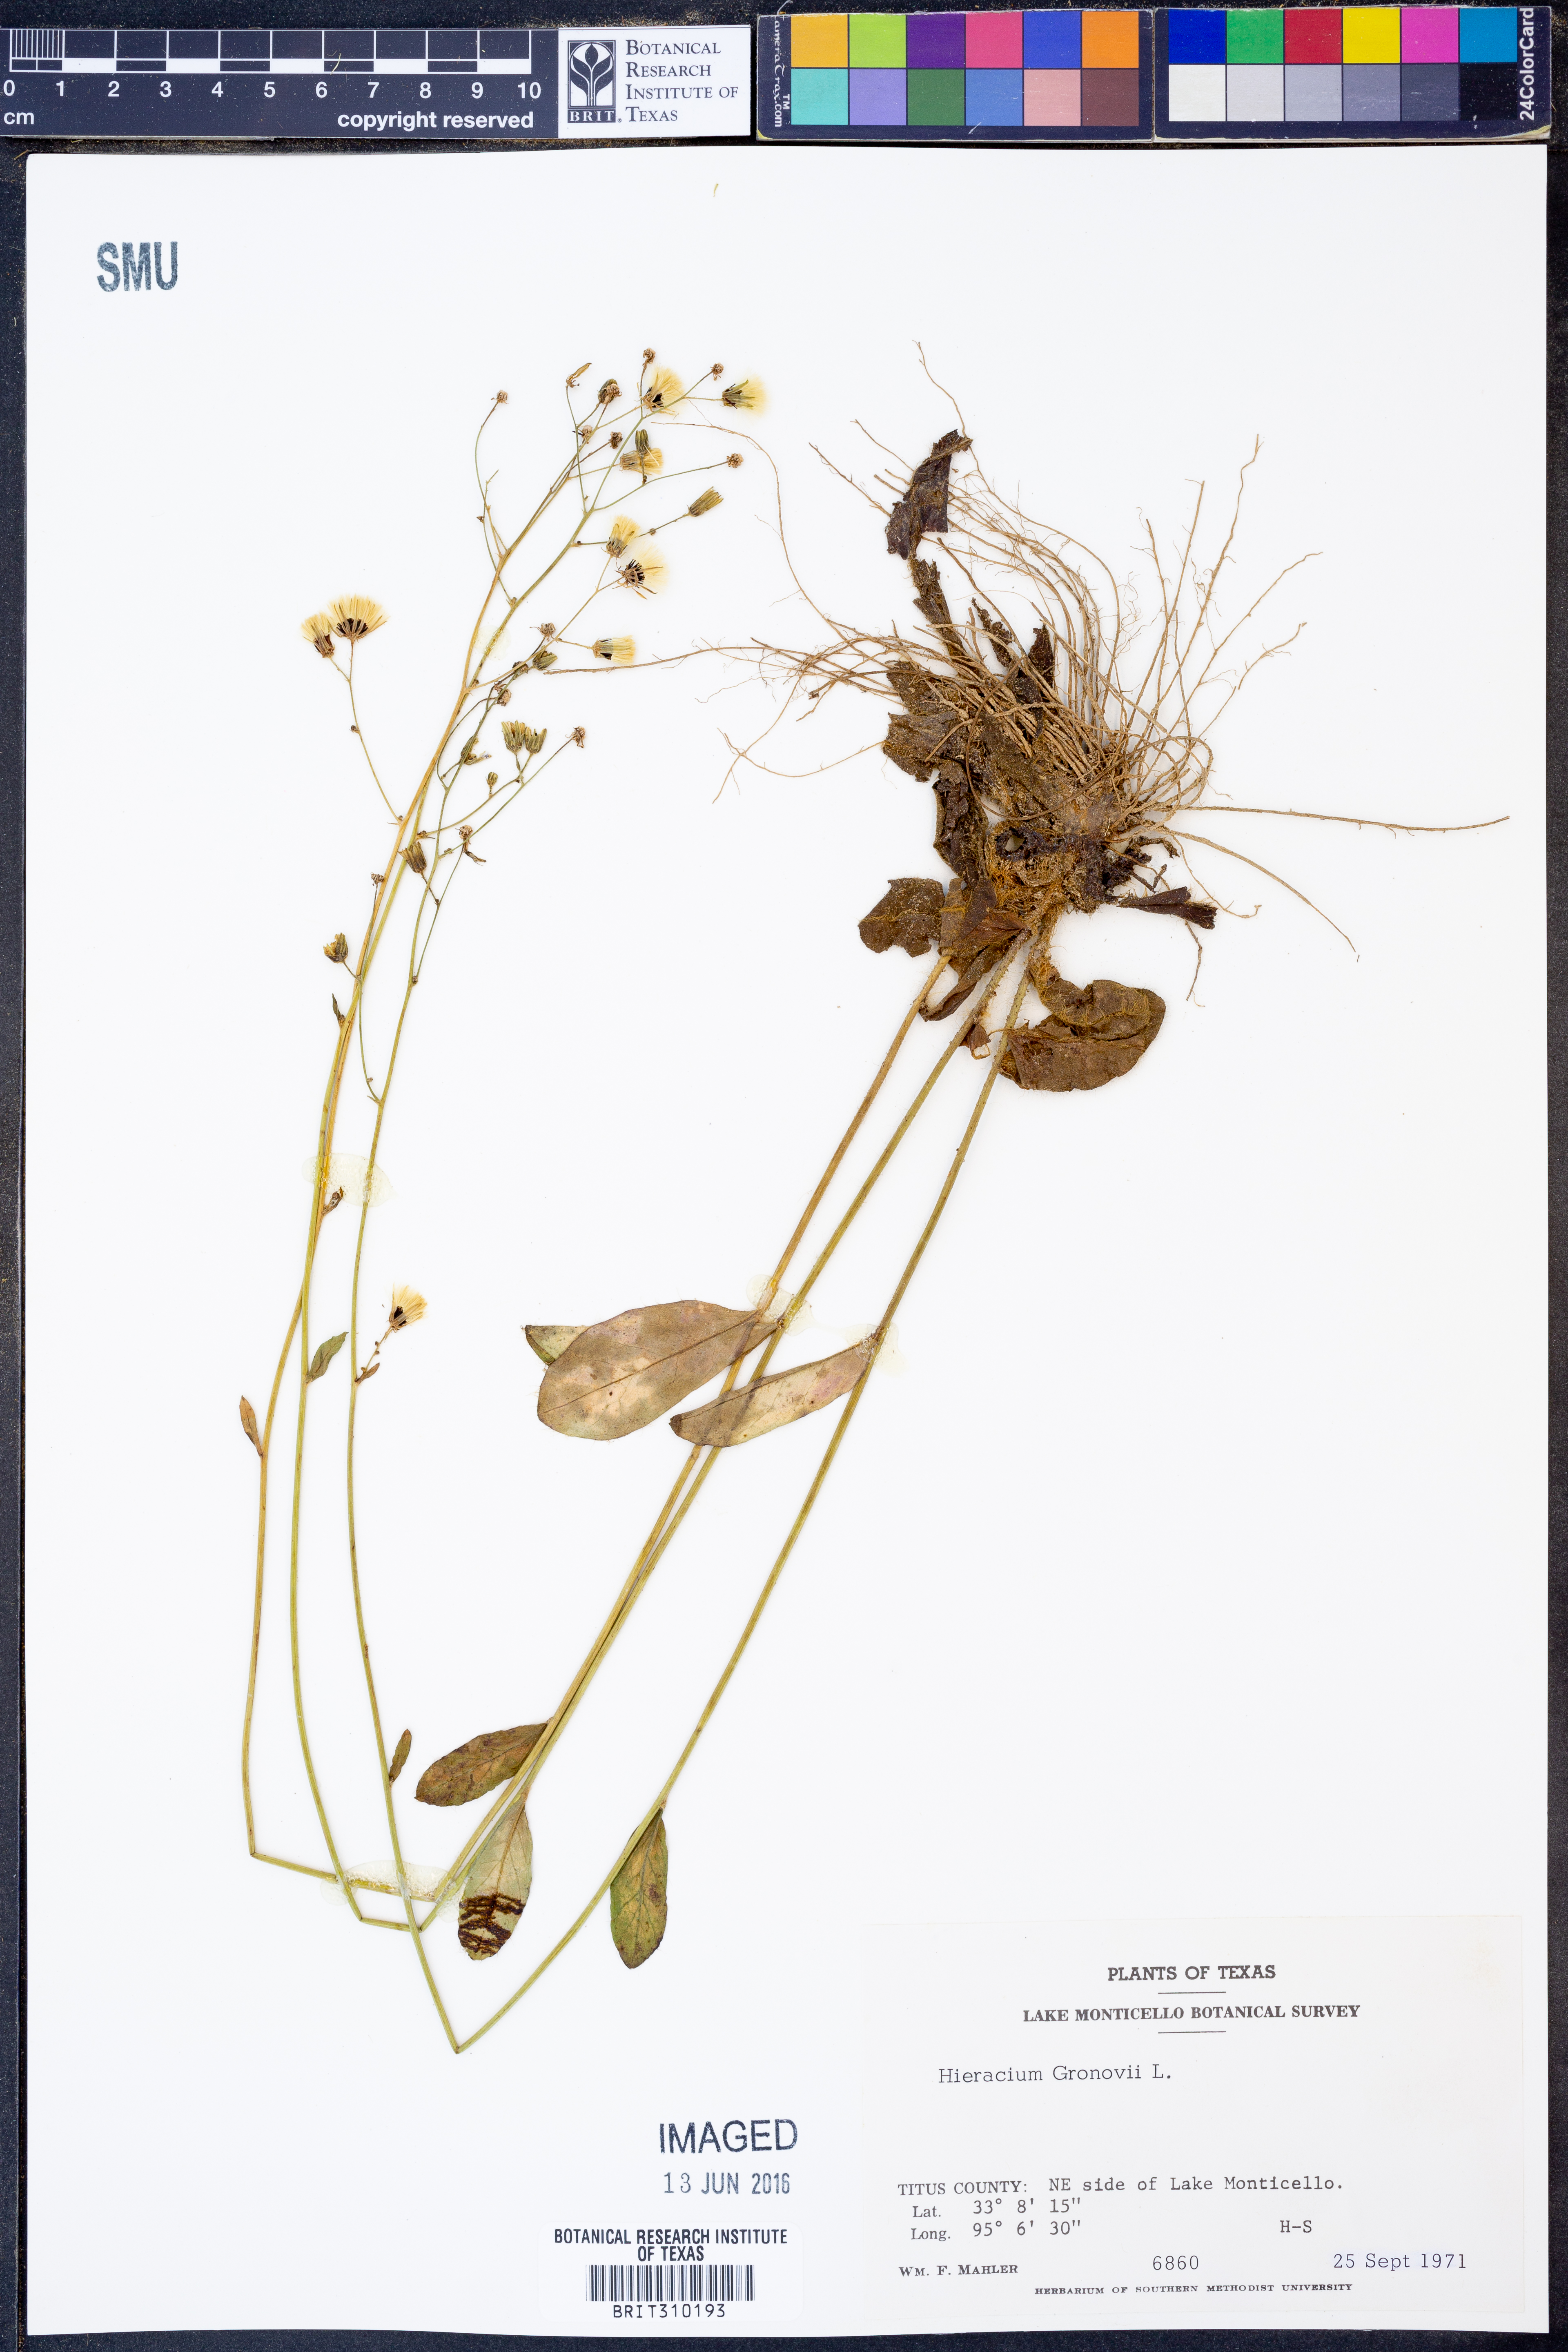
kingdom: Plantae
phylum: Tracheophyta
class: Magnoliopsida
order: Asterales
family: Asteraceae
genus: Hieracium
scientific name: Hieracium gronovii
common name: Beaked hawkweed
